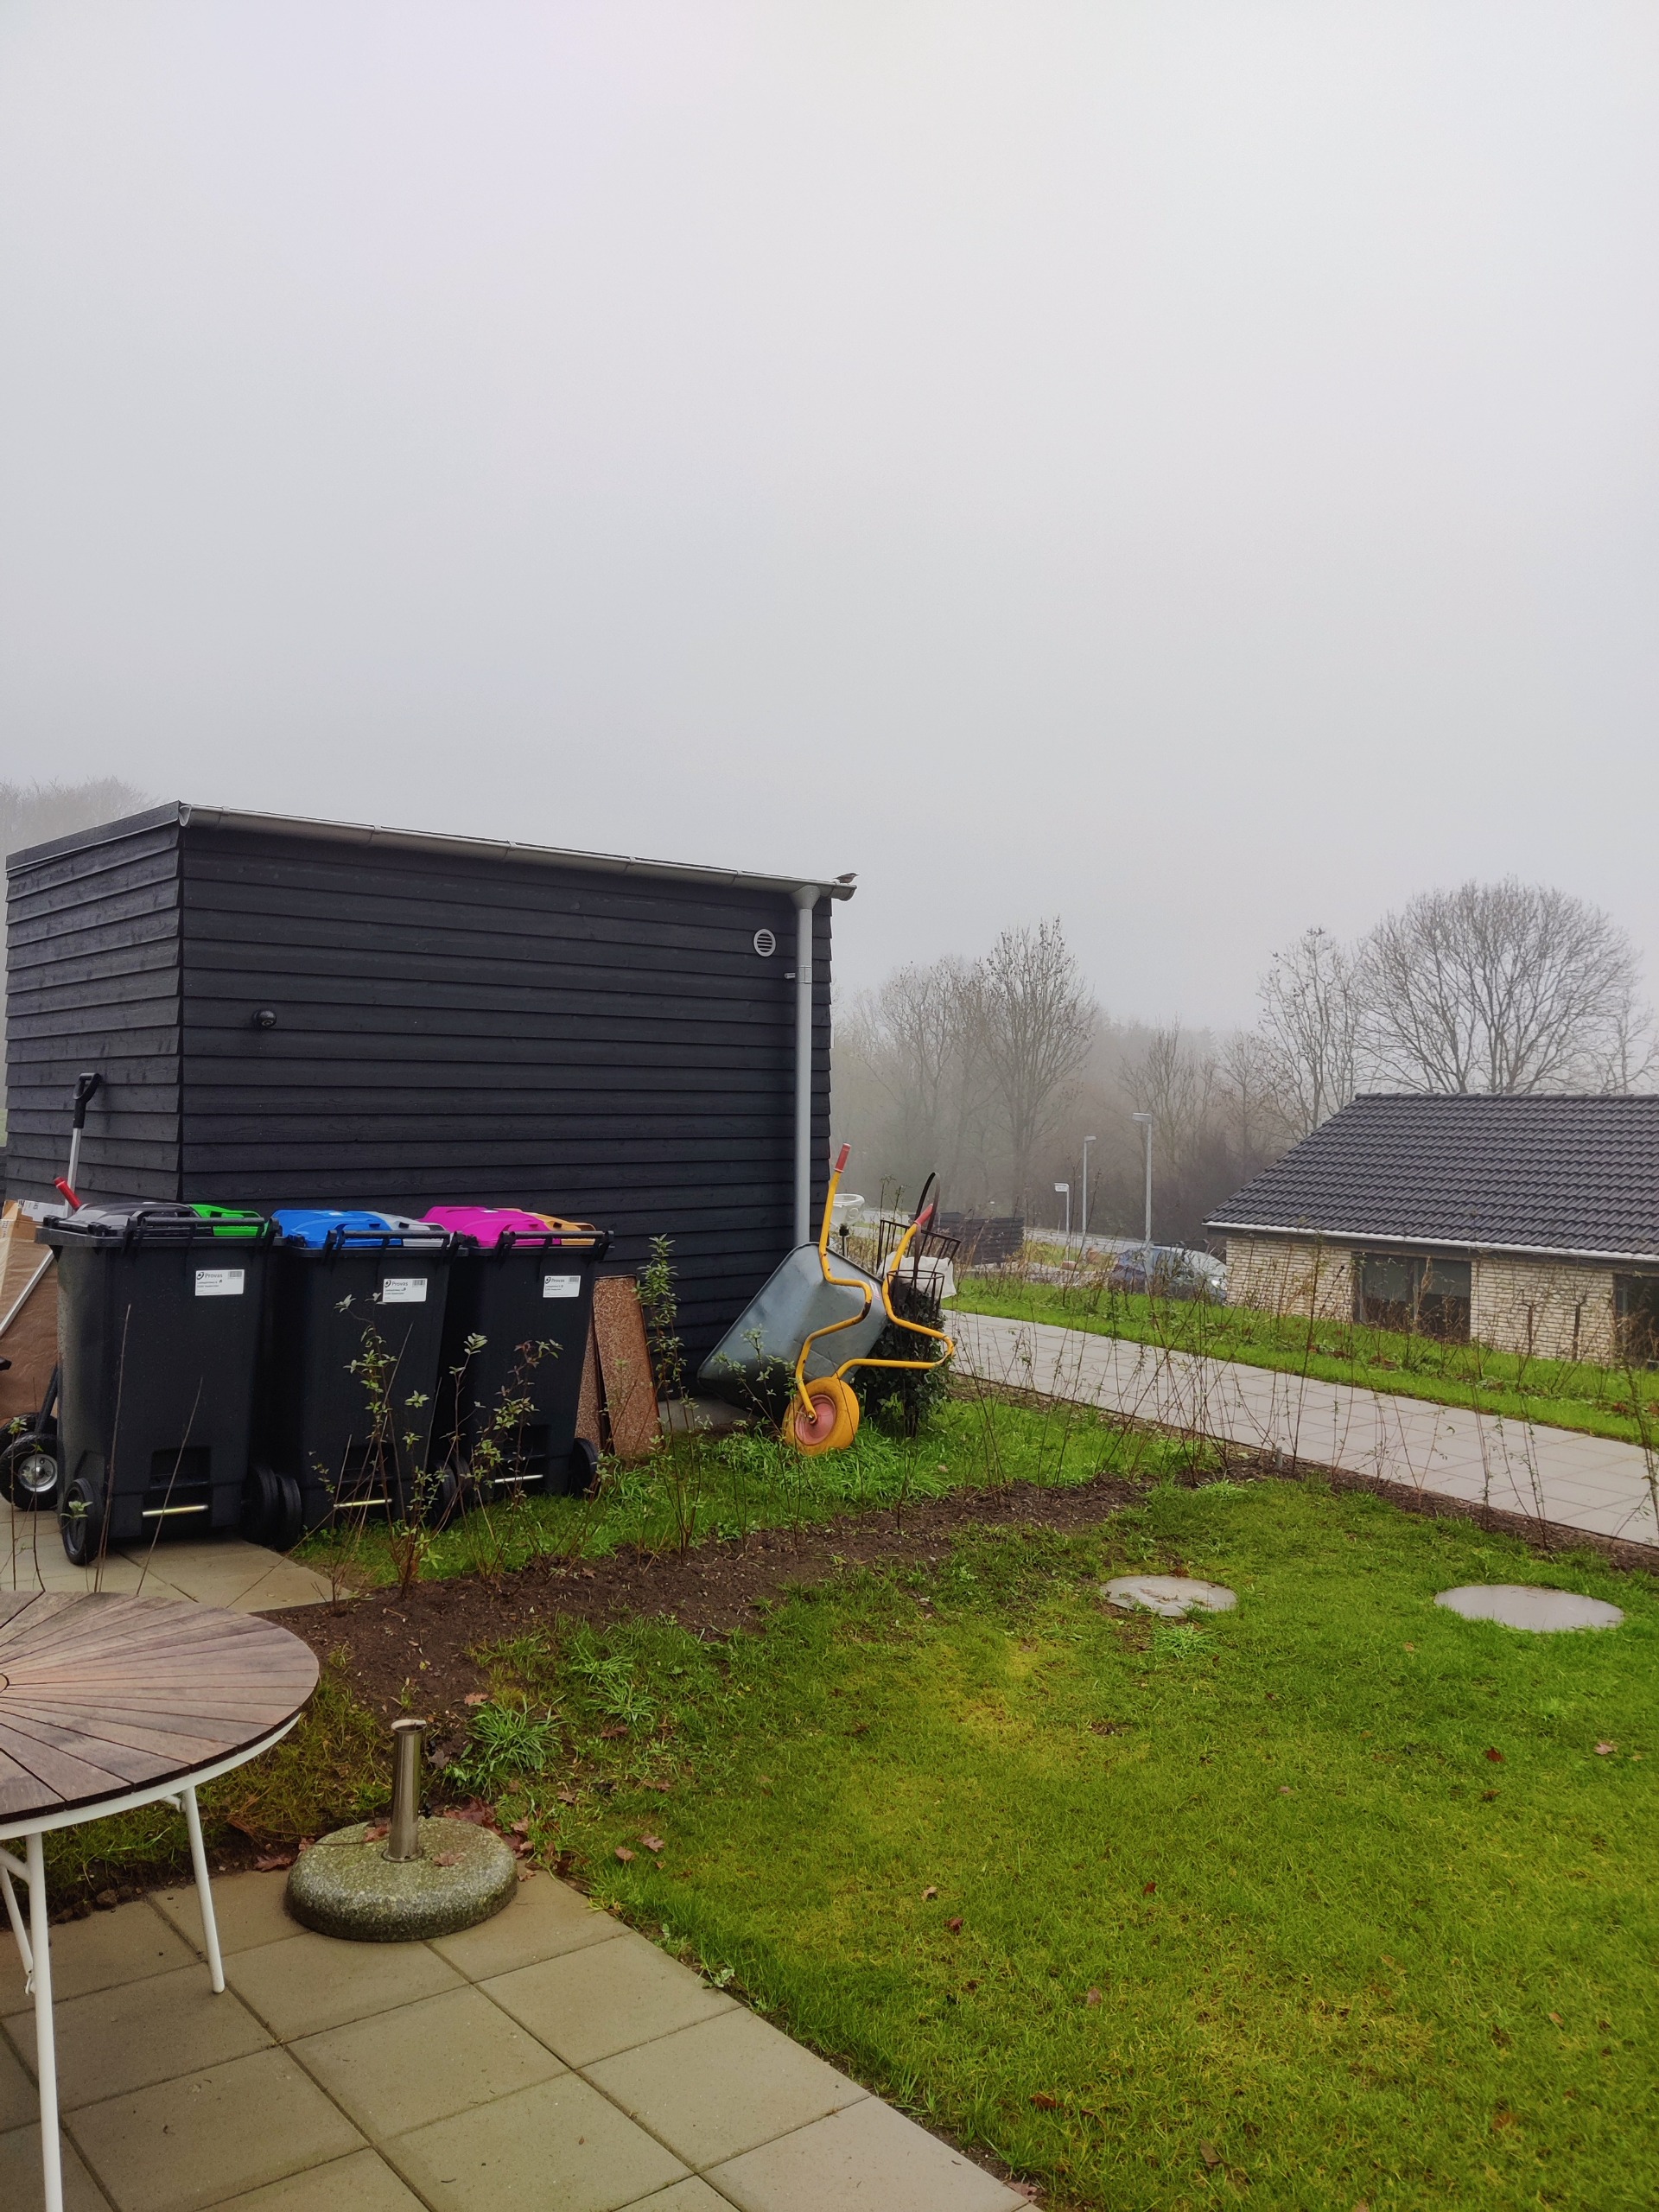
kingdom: Animalia
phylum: Chordata
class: Aves
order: Passeriformes
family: Sittidae
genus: Sitta
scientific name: Sitta europaea
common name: Spætmejse
